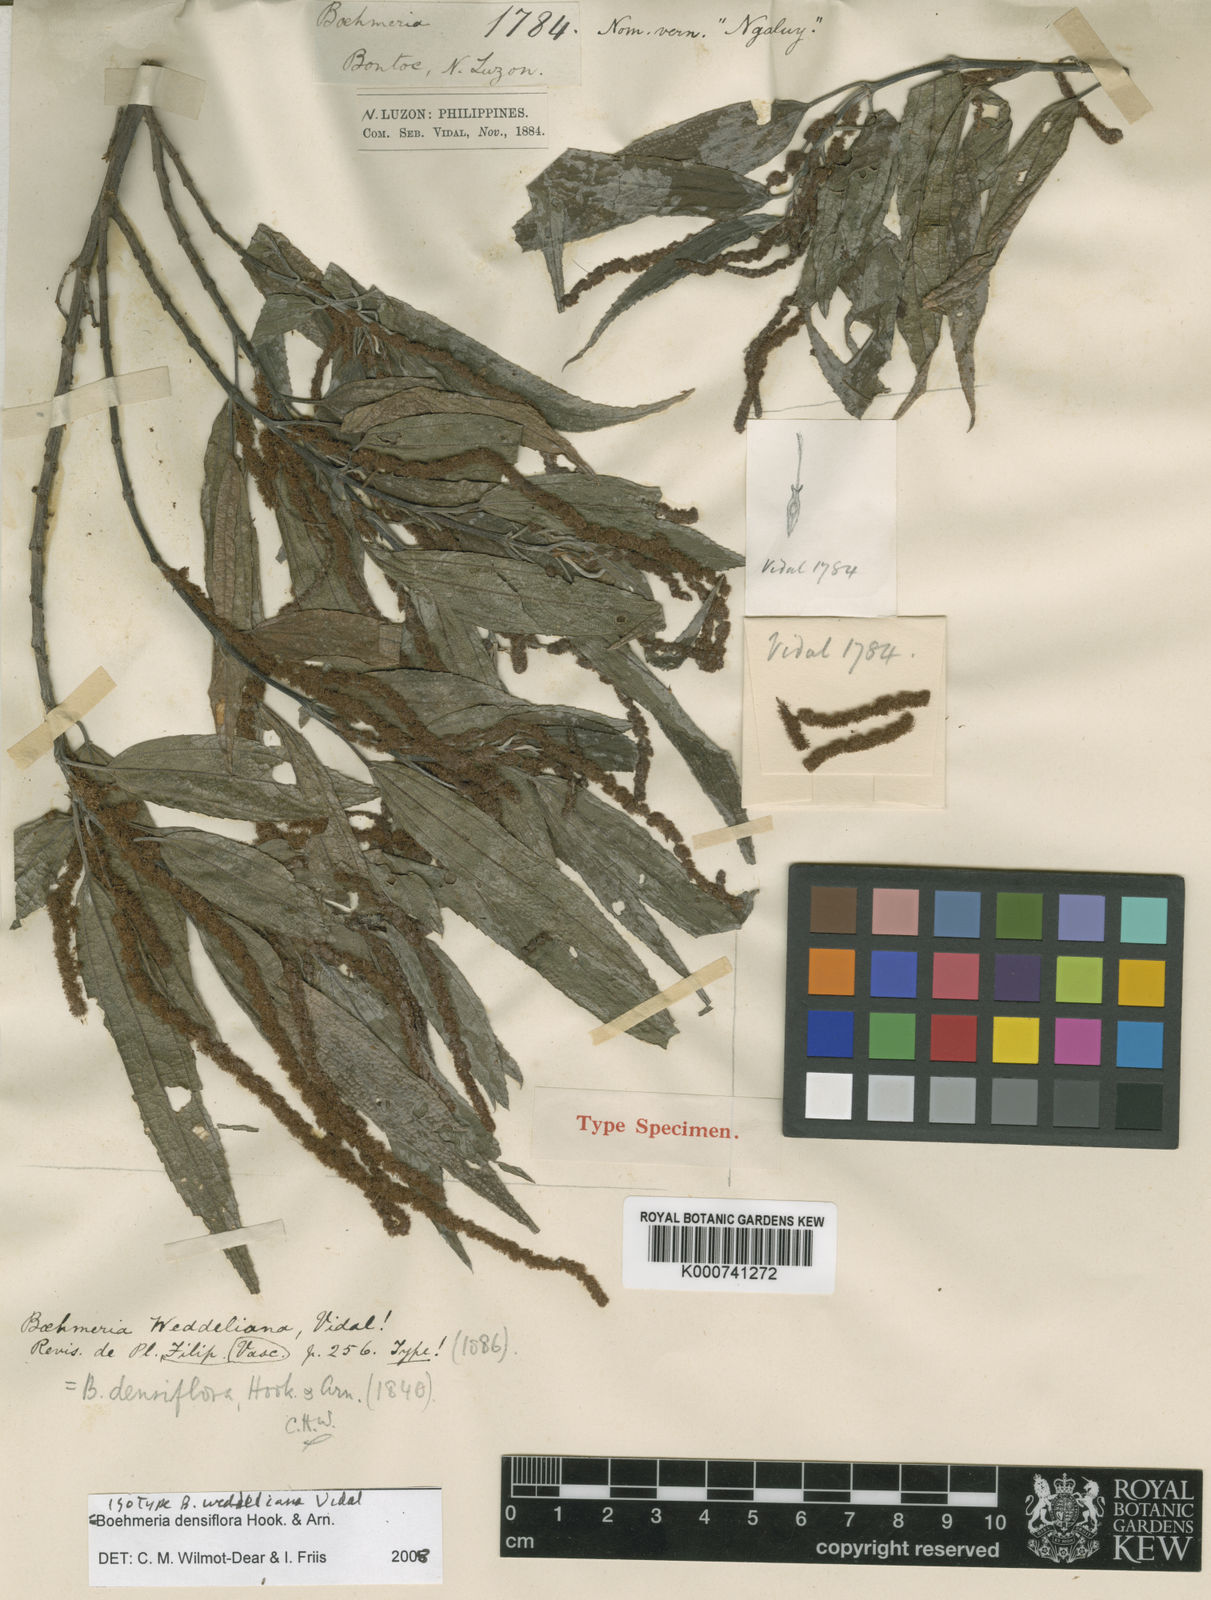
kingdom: Plantae
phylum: Tracheophyta
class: Magnoliopsida
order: Rosales
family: Urticaceae
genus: Boehmeria
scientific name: Boehmeria densiflora
